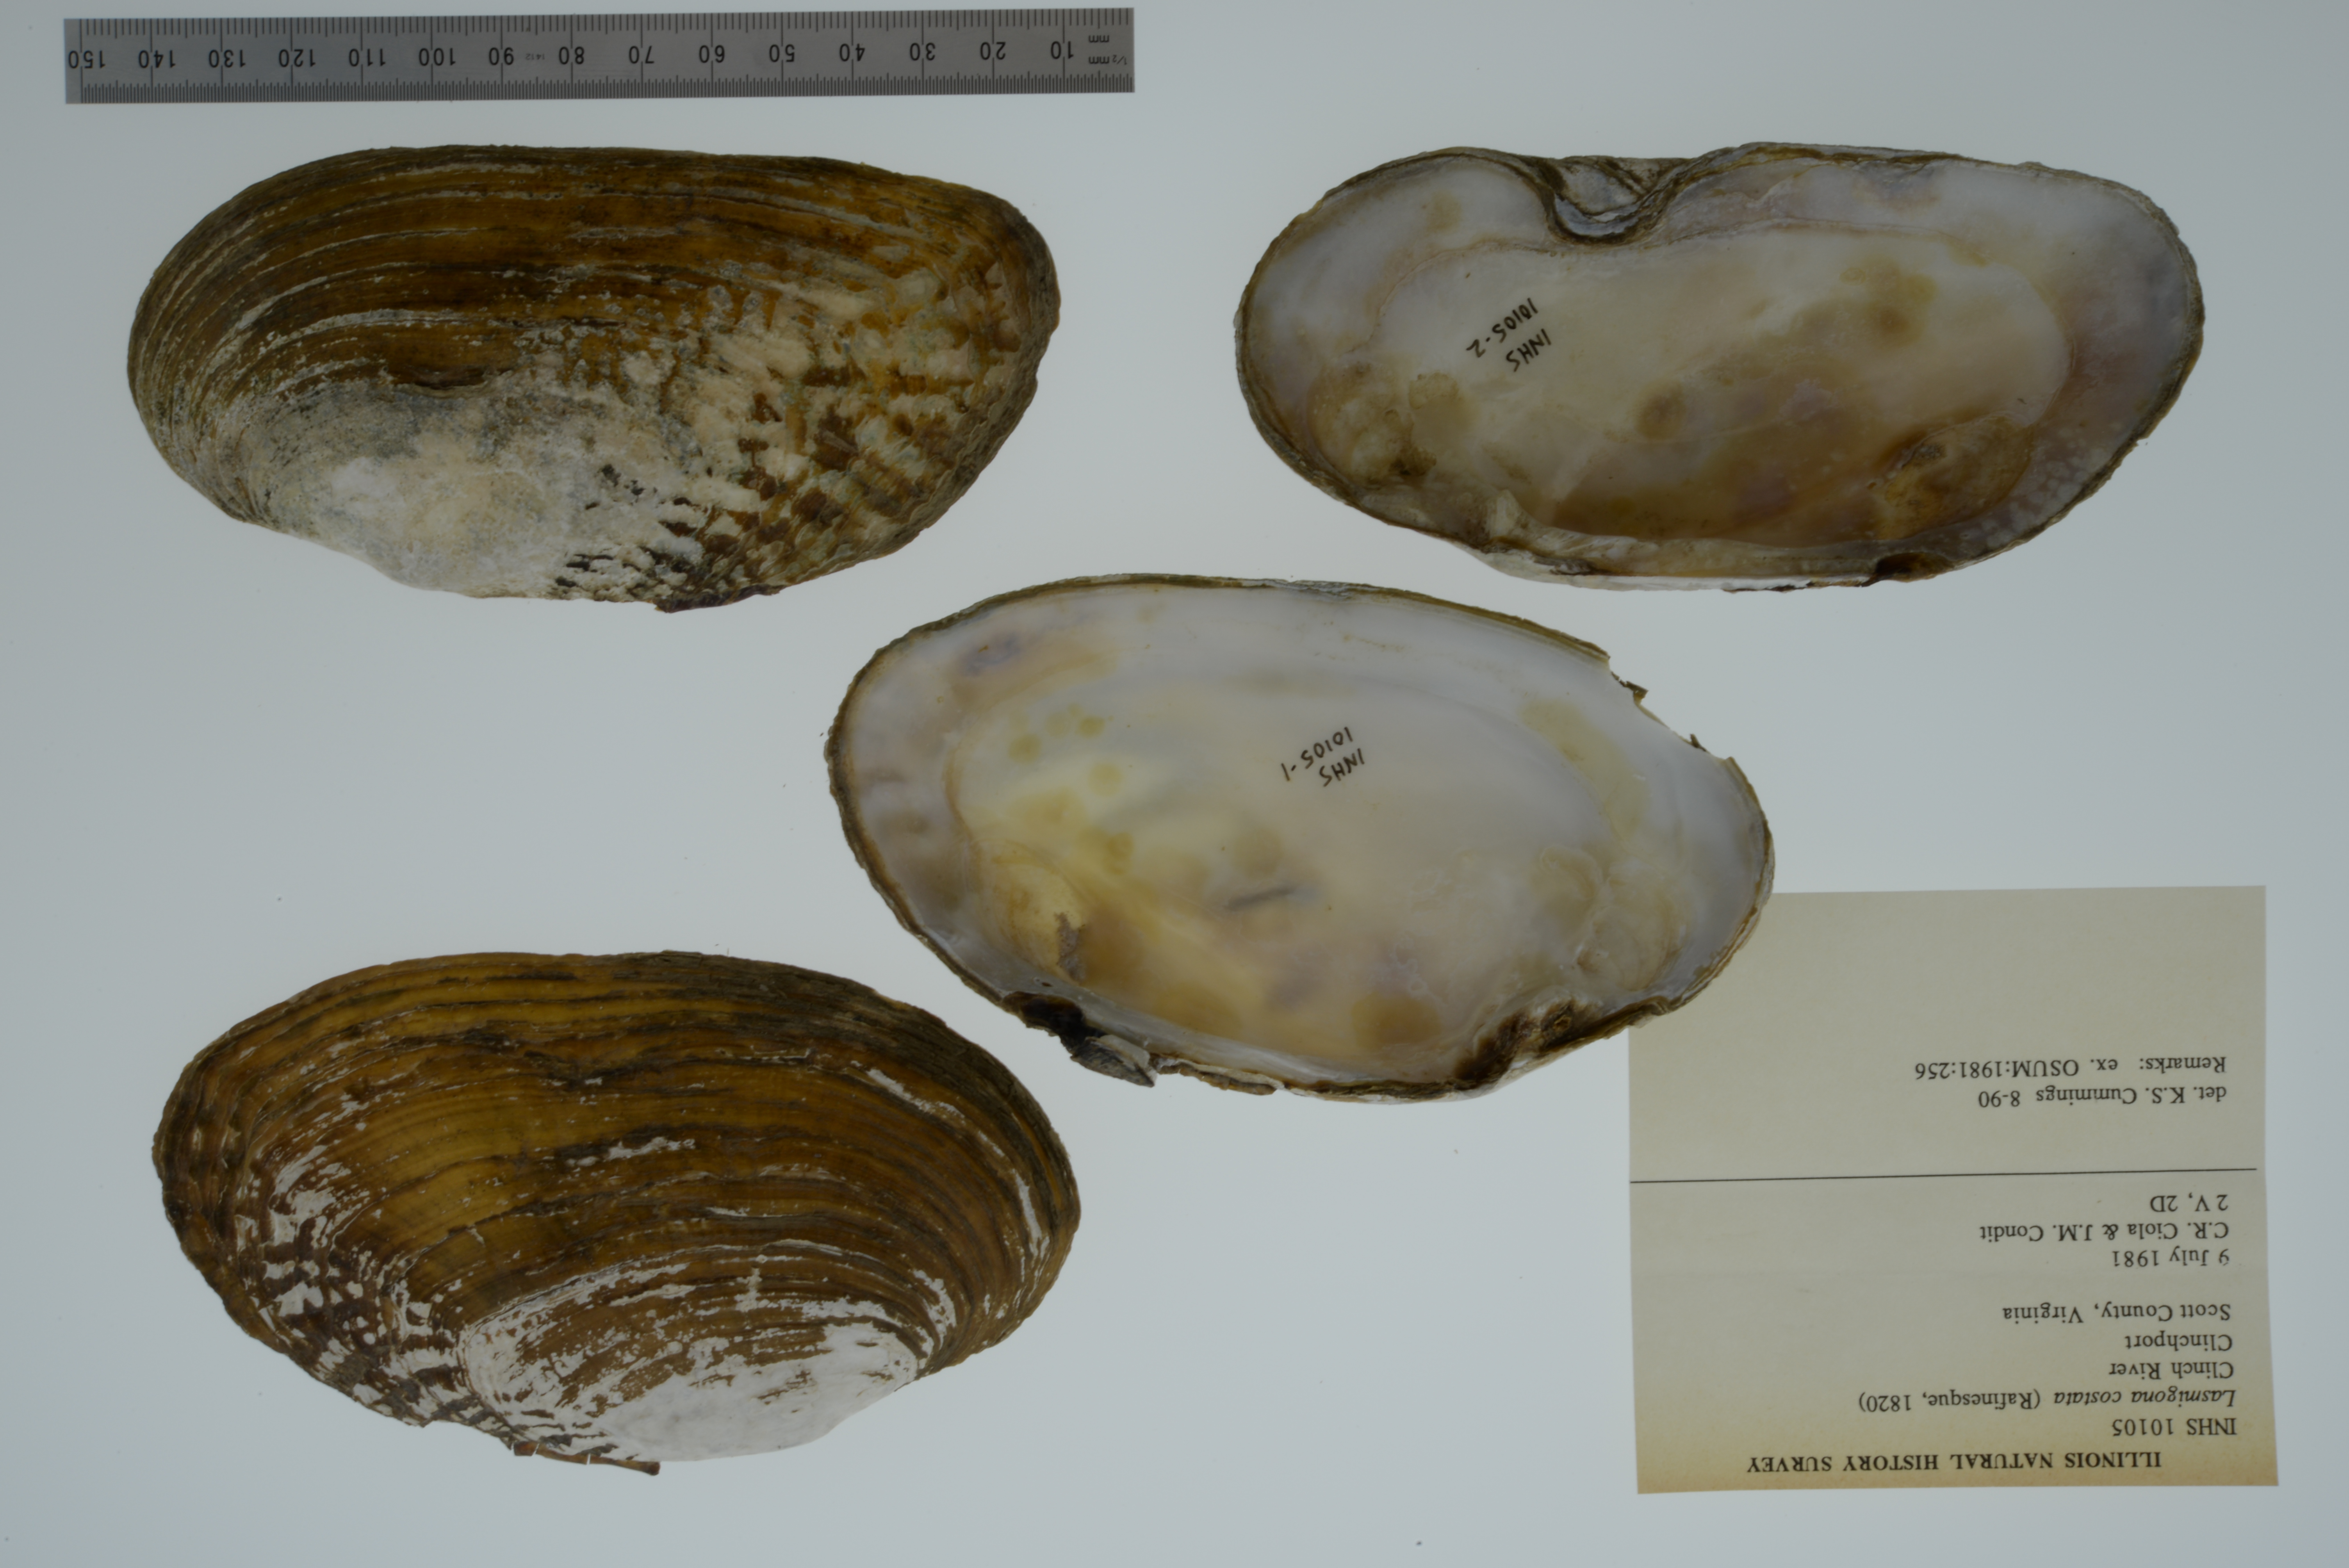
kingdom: Animalia
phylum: Mollusca
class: Bivalvia
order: Unionida
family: Unionidae
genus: Lasmigona
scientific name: Lasmigona costata
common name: Flutedshell
